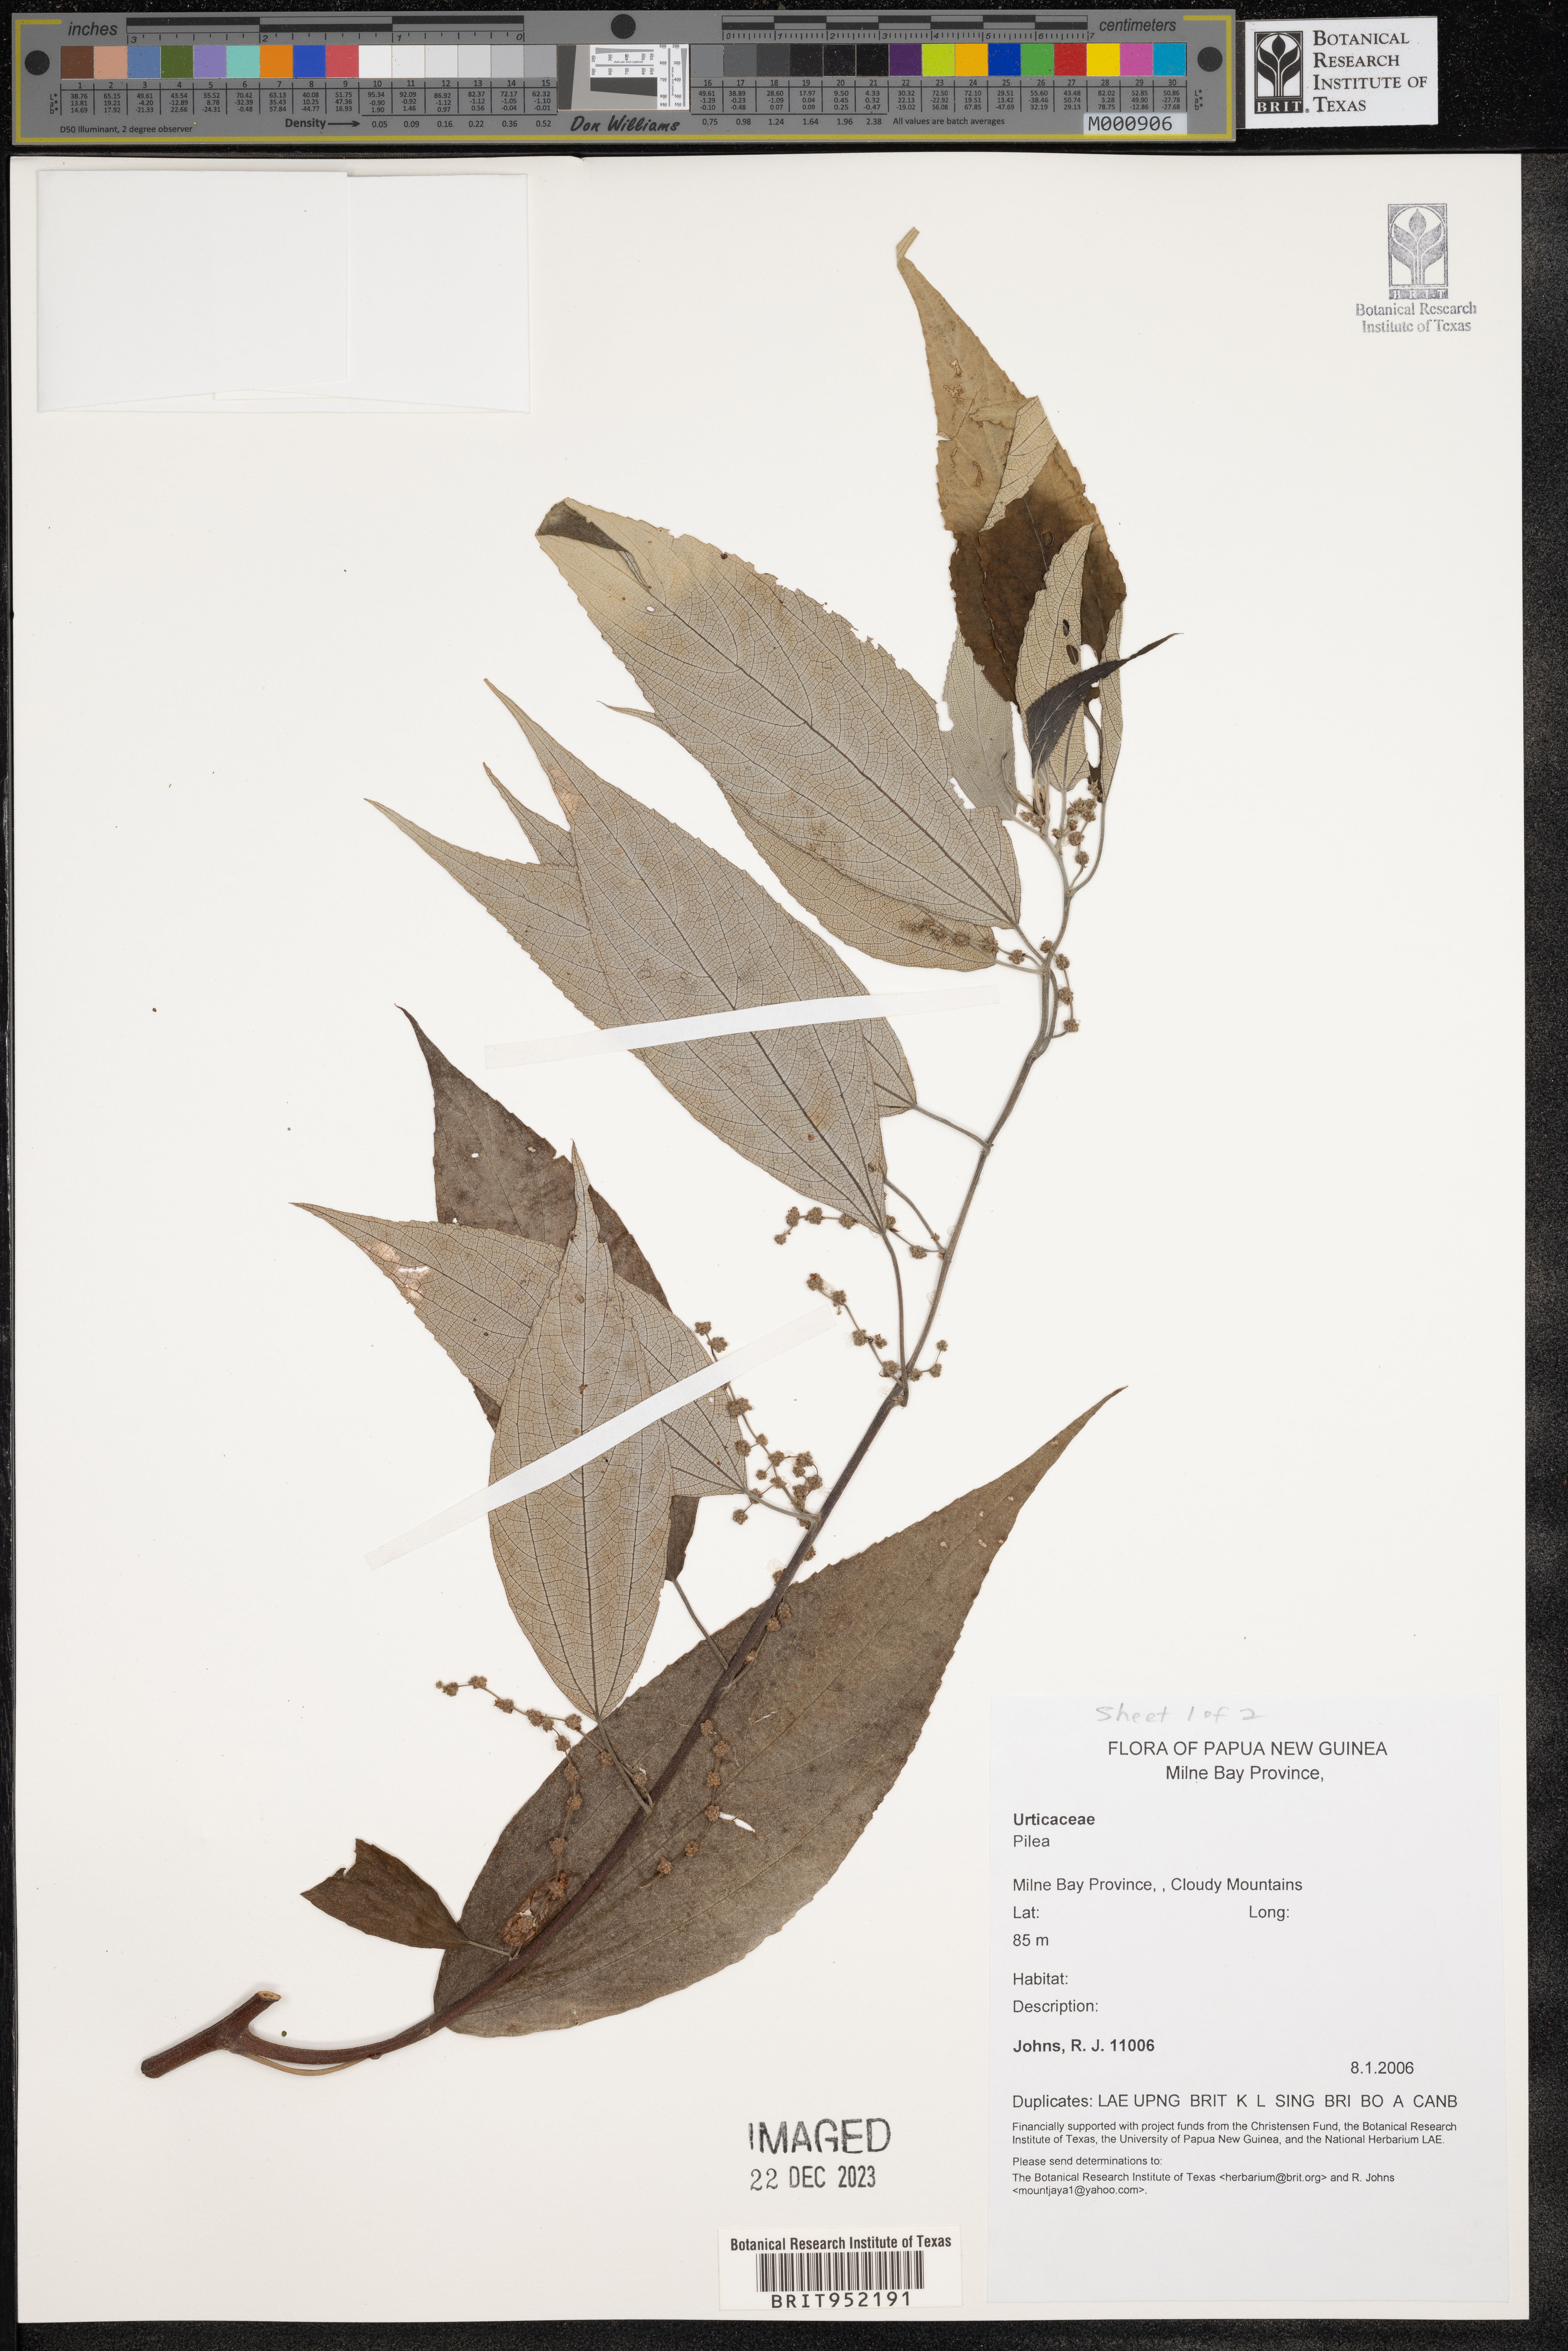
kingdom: Plantae
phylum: Tracheophyta
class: Magnoliopsida
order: Rosales
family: Urticaceae
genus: Pilea
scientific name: Pilea
